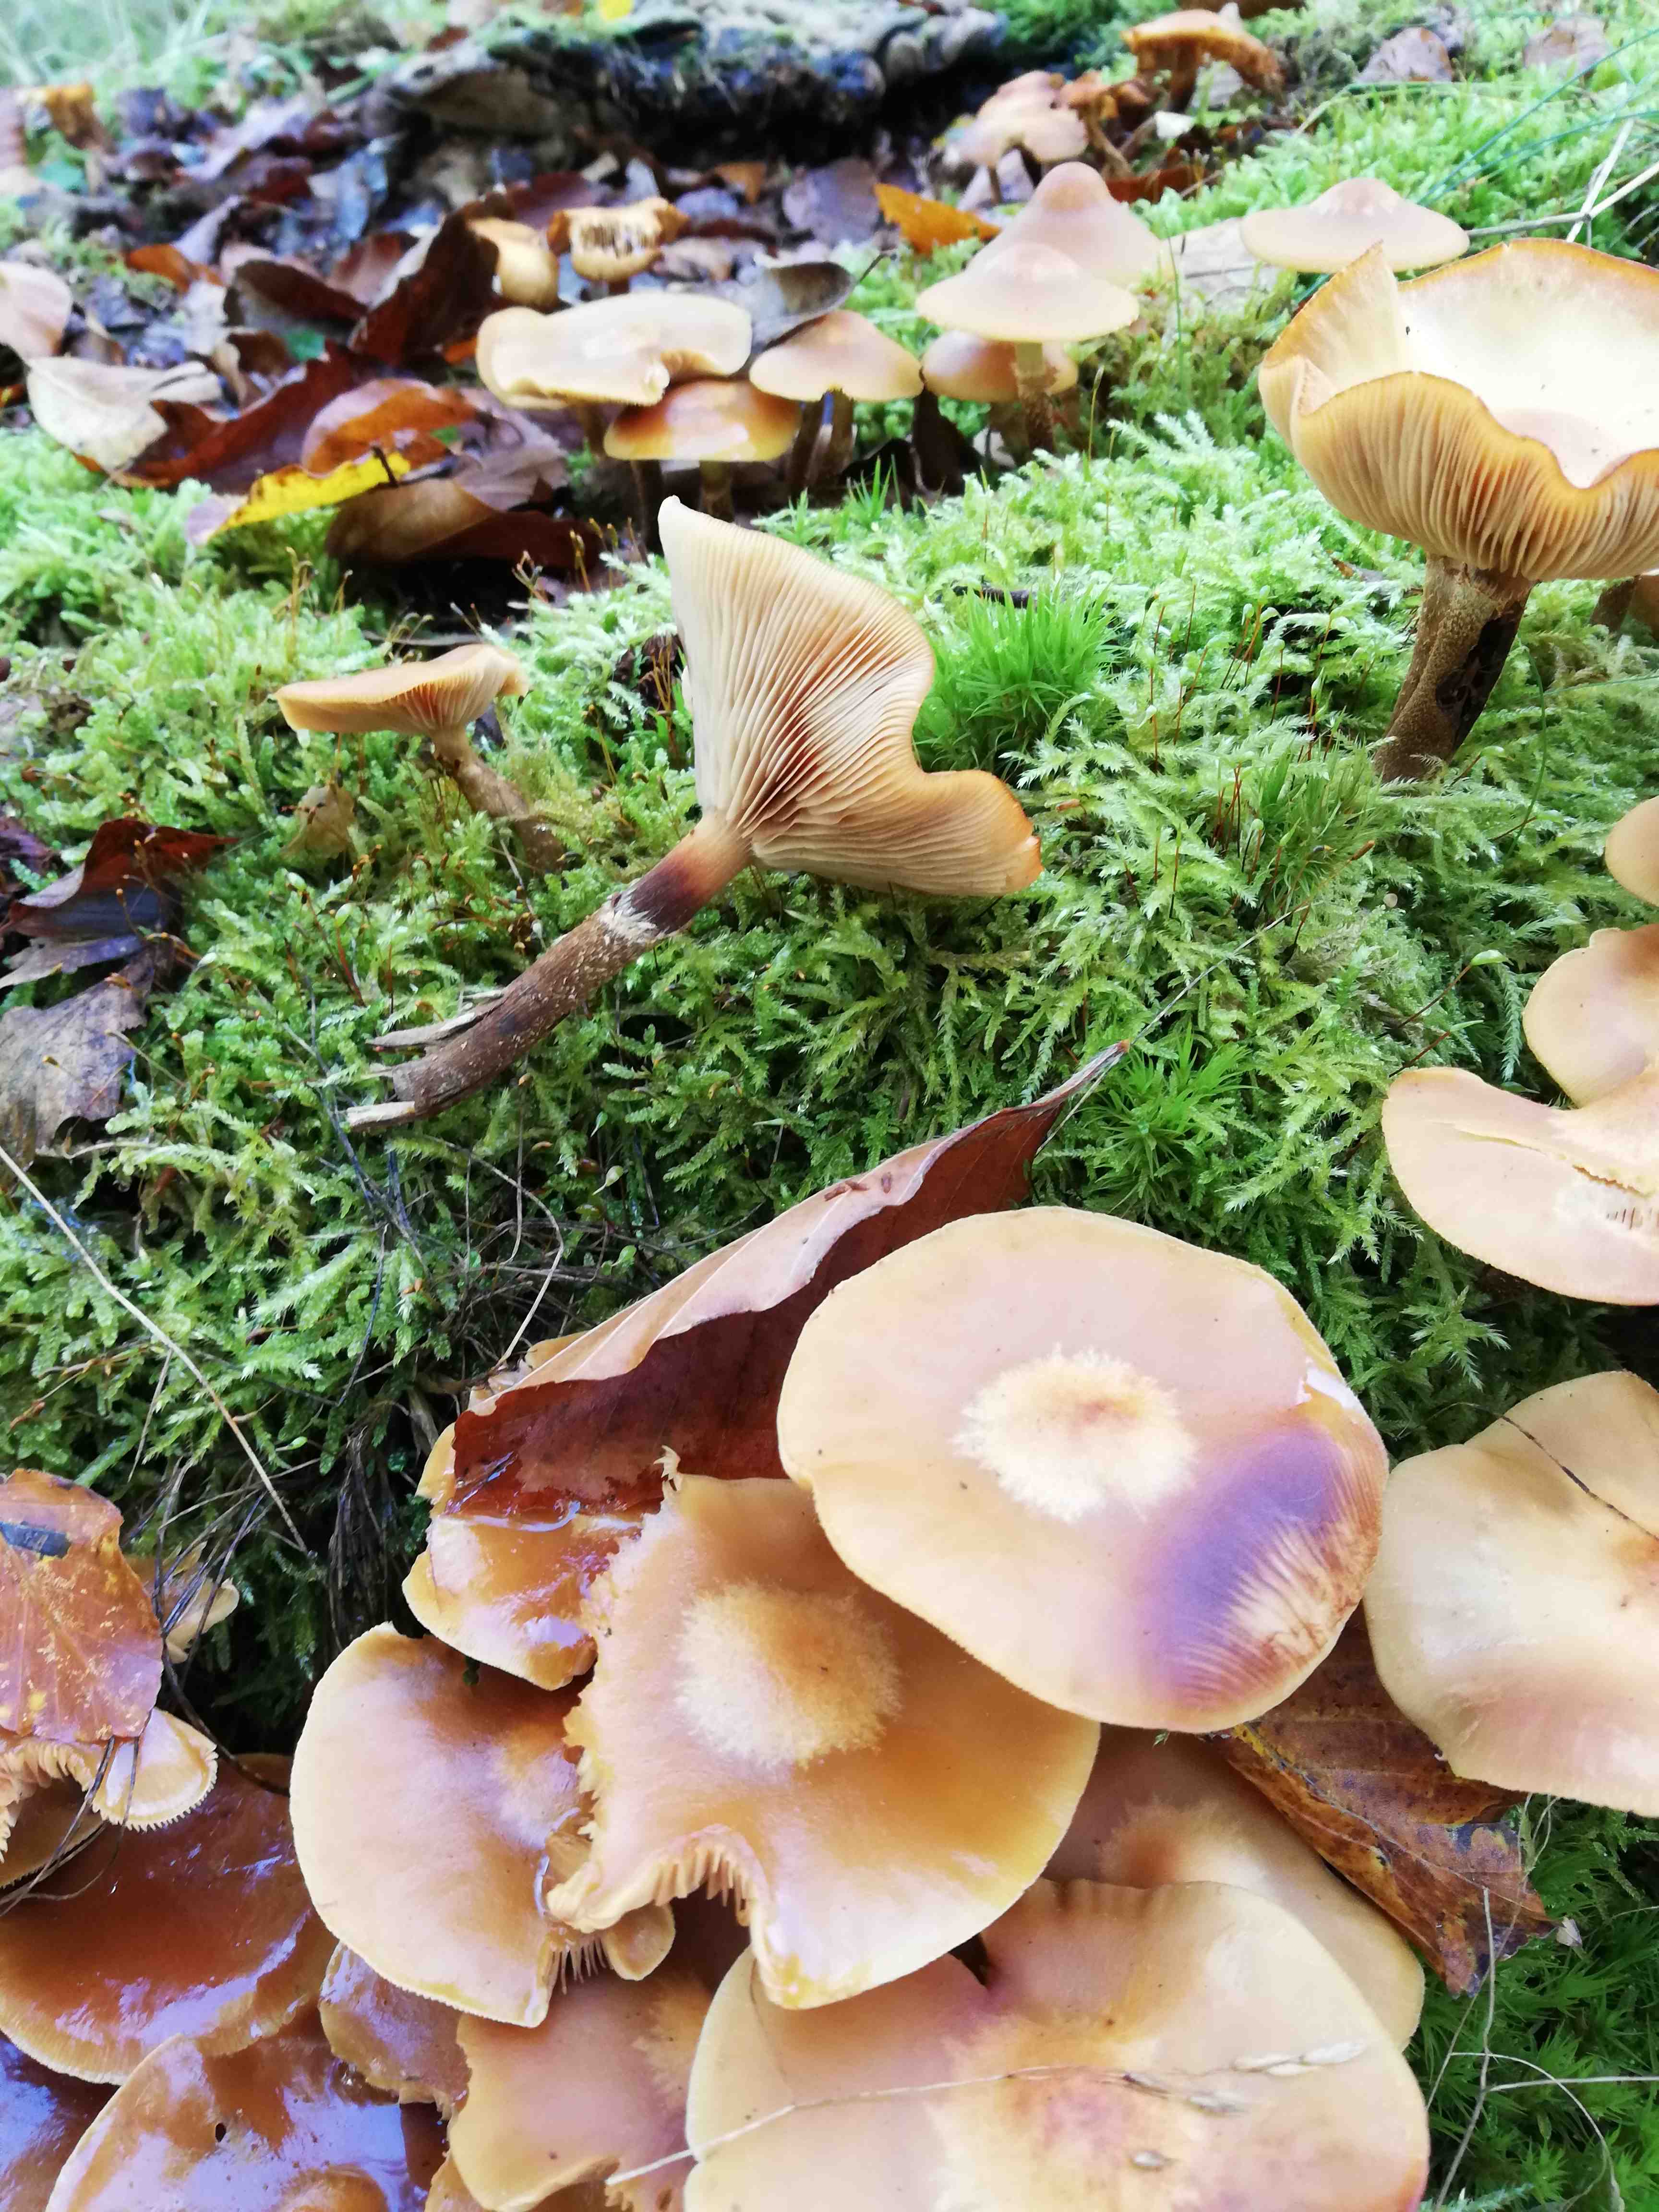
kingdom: Fungi
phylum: Basidiomycota
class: Agaricomycetes
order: Agaricales
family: Strophariaceae
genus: Kuehneromyces
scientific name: Kuehneromyces mutabilis
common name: foranderlig skælhat
